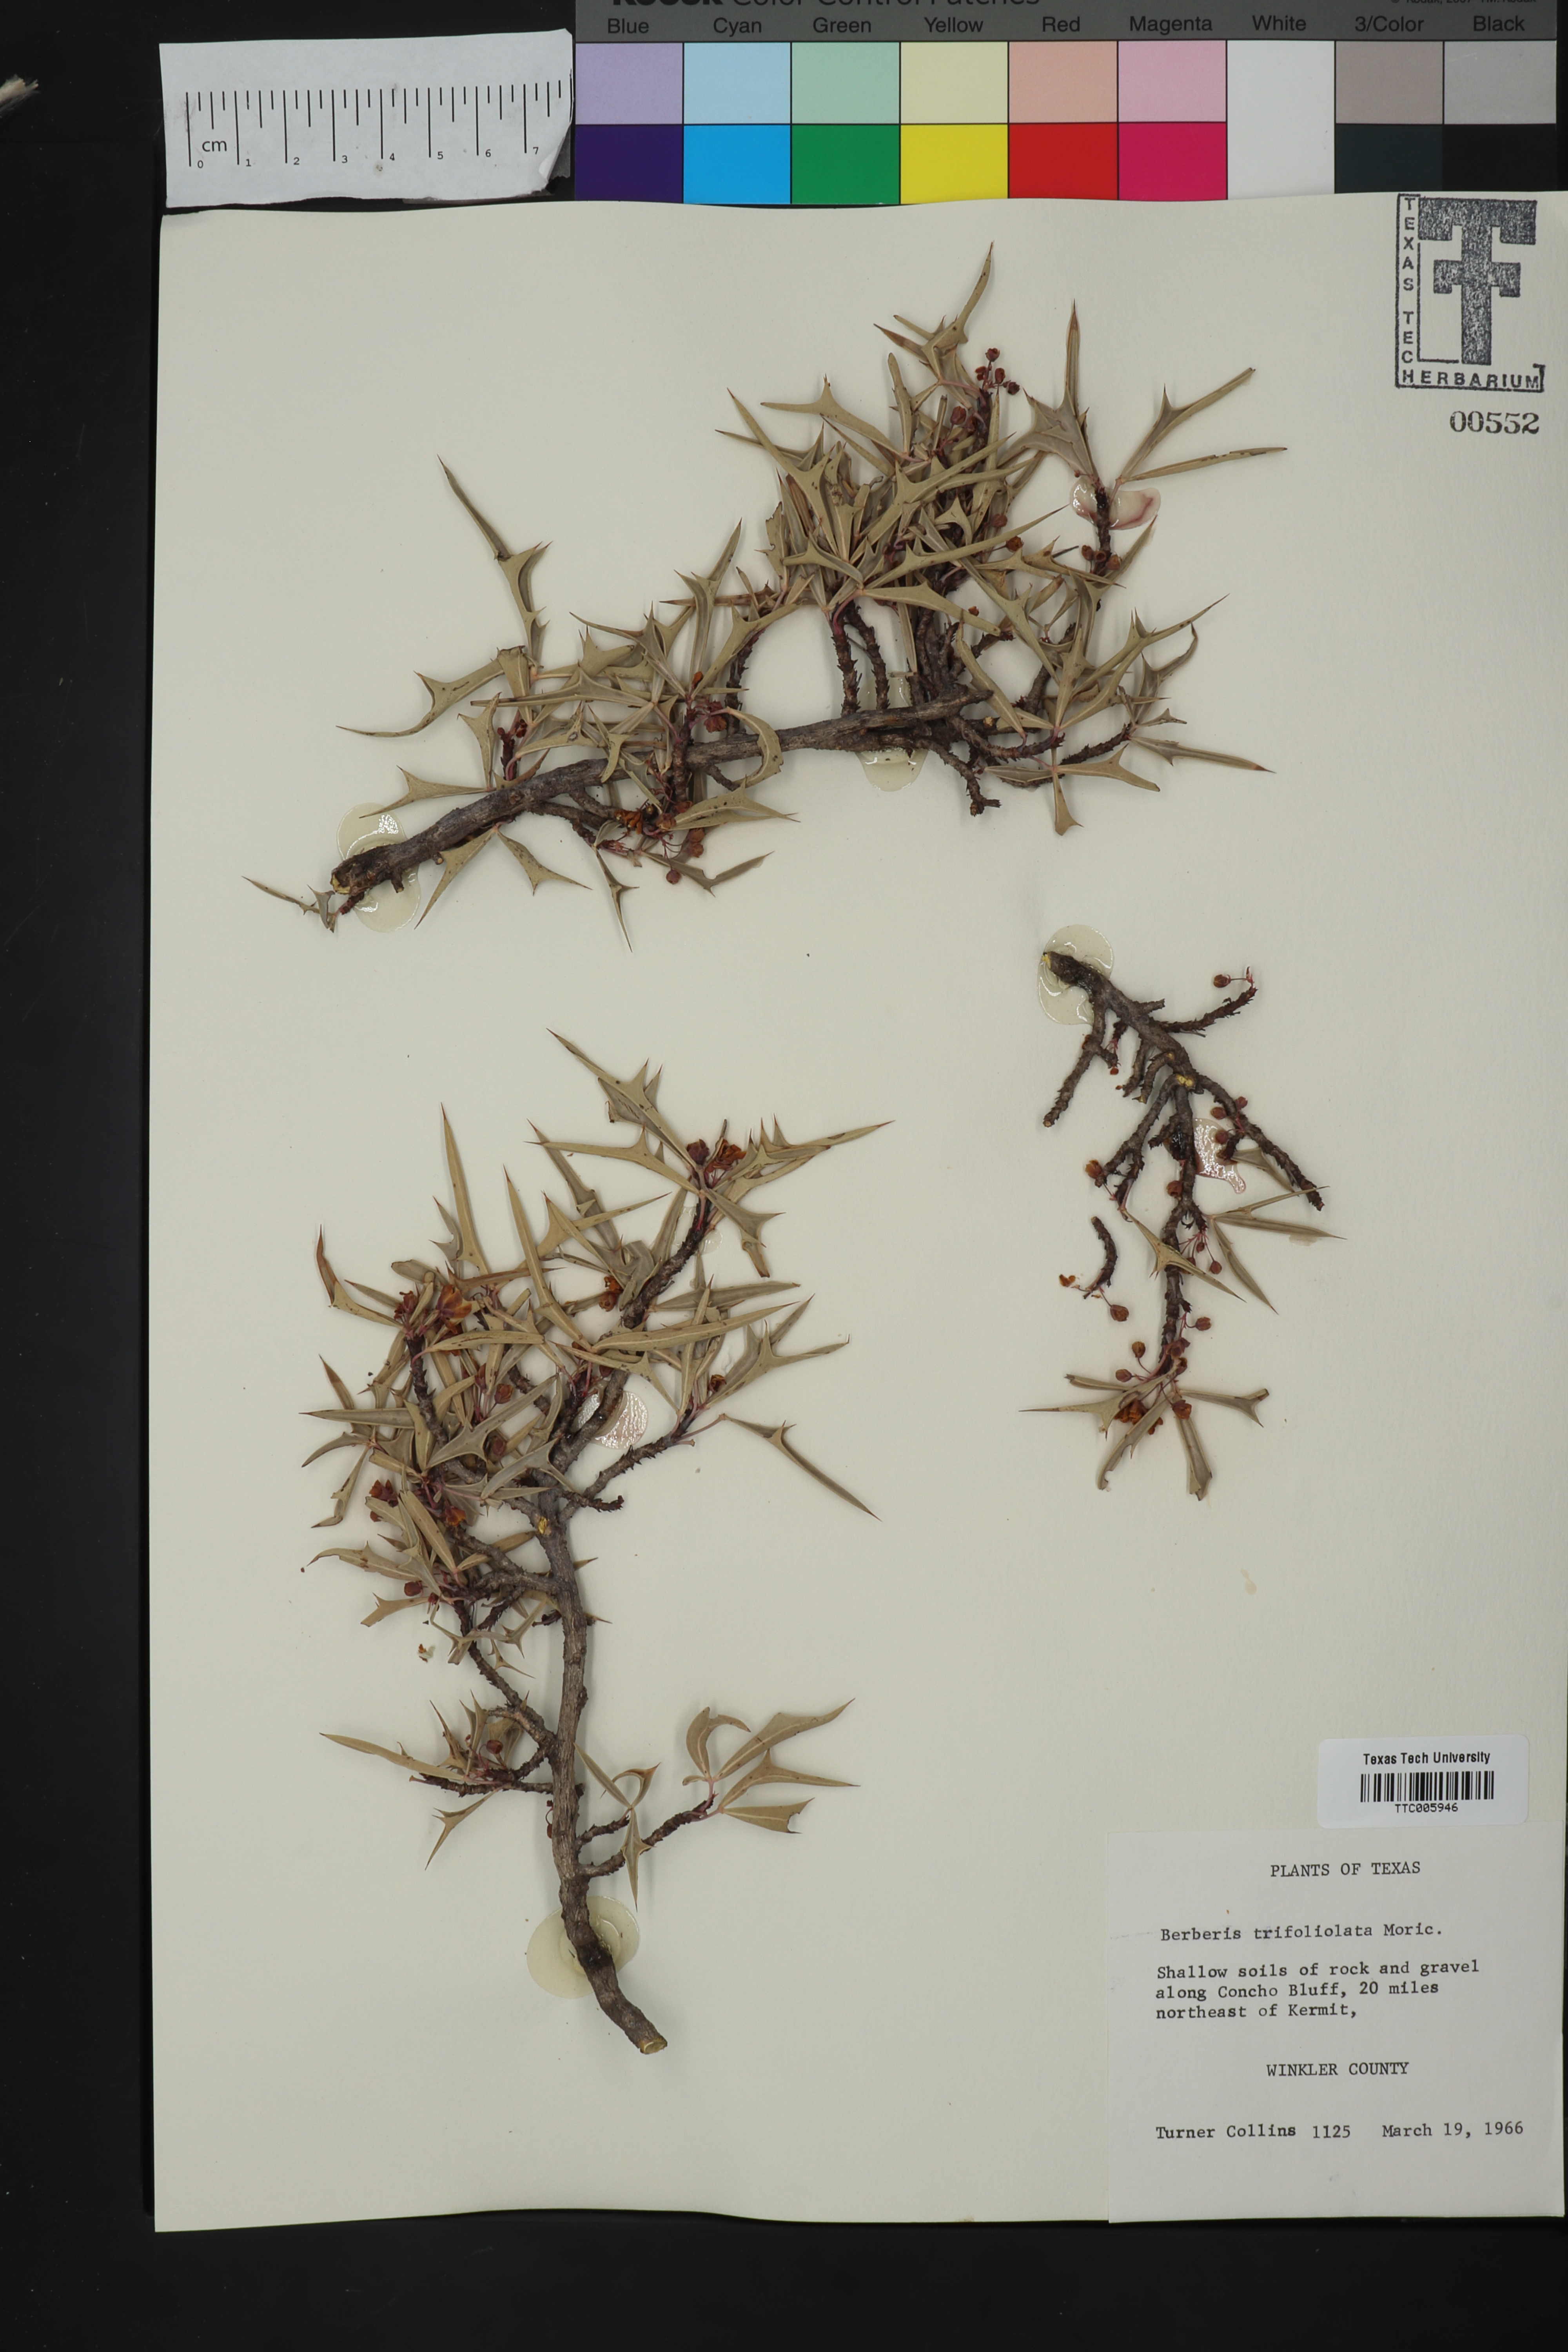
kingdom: Plantae
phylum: Tracheophyta
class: Magnoliopsida
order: Ranunculales
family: Berberidaceae
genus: Alloberberis
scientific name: Alloberberis trifoliolata
